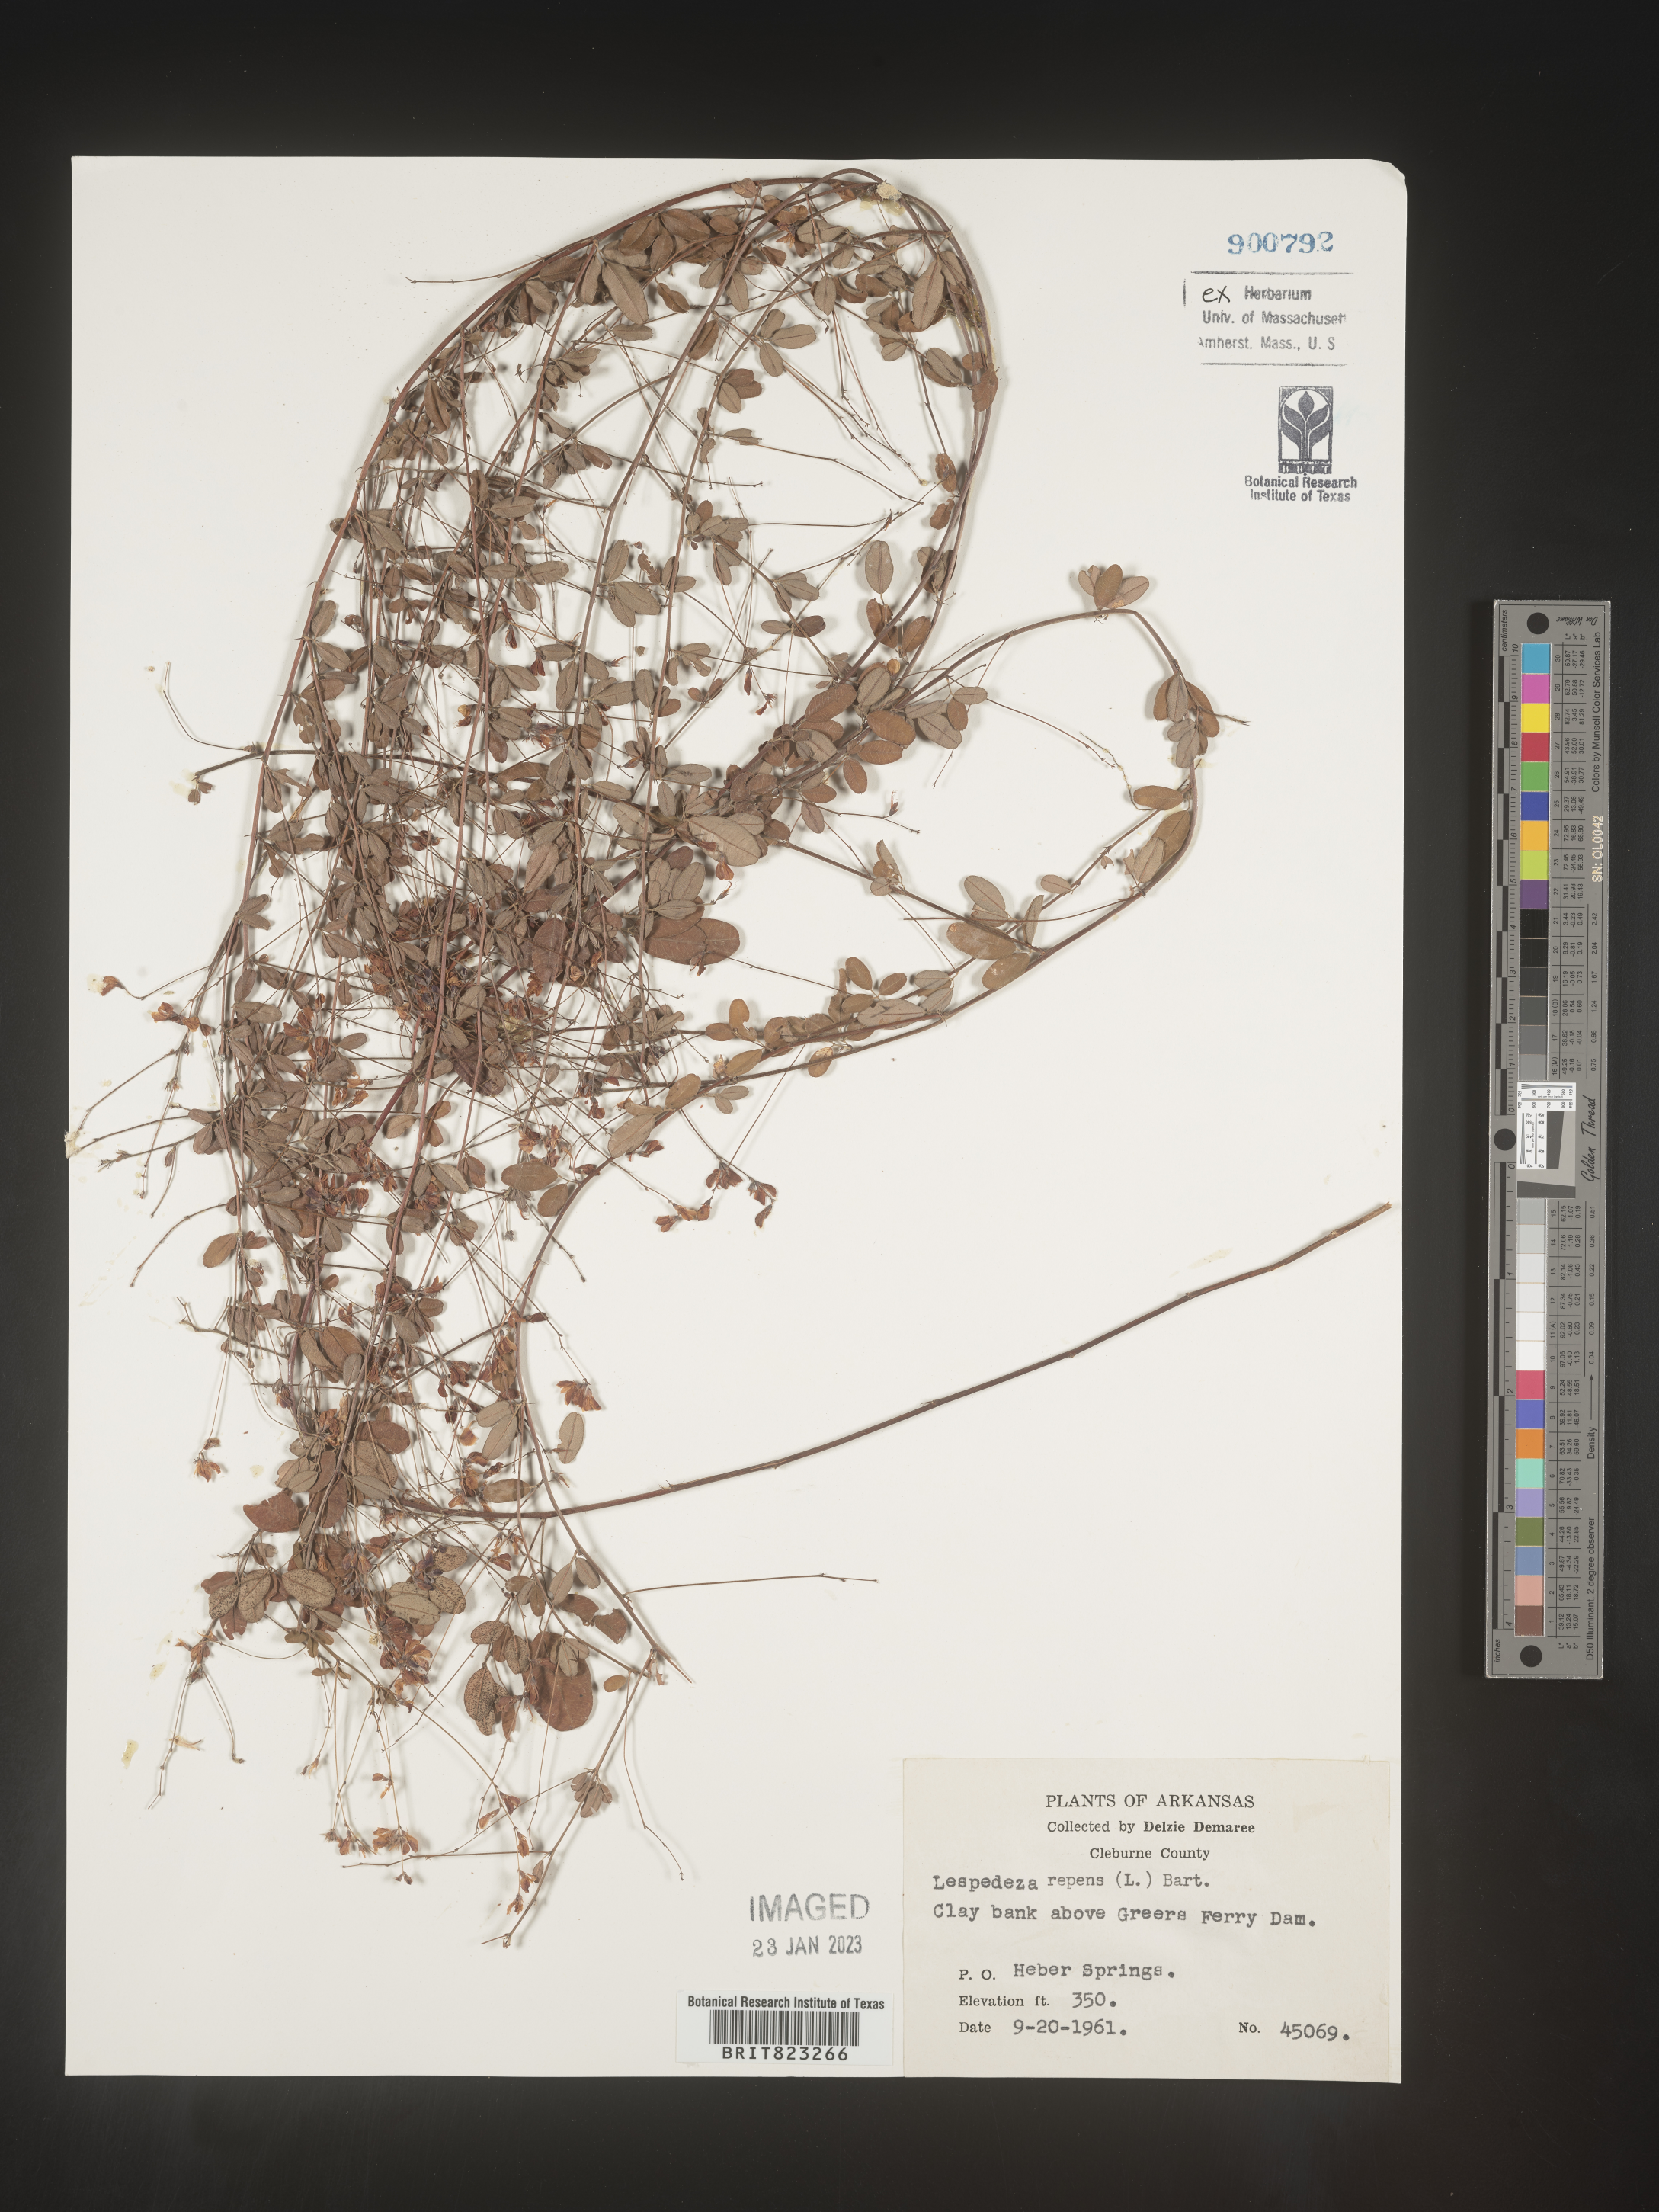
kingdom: Plantae
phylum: Tracheophyta
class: Magnoliopsida
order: Fabales
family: Fabaceae
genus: Lespedeza
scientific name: Lespedeza repens
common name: Creeping bush-clover
